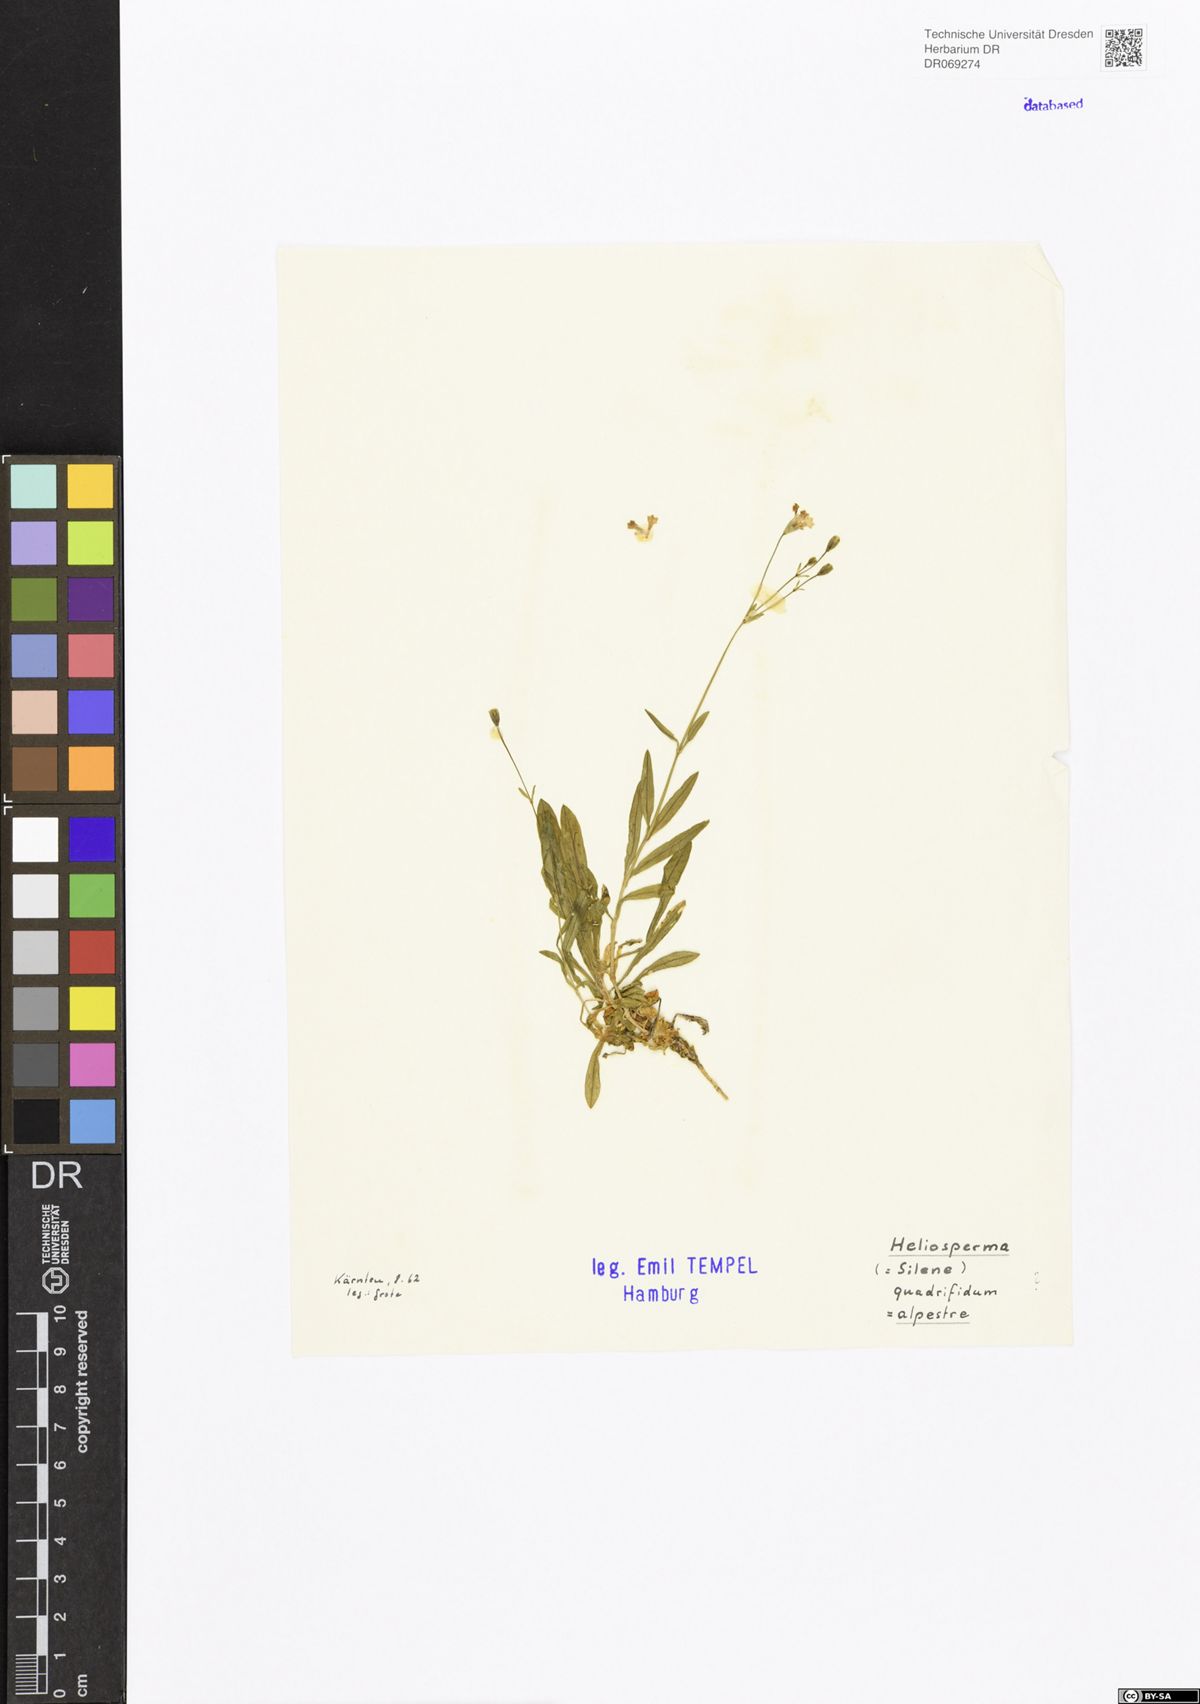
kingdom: Plantae
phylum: Tracheophyta
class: Magnoliopsida
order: Caryophyllales
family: Caryophyllaceae
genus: Heliosperma
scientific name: Heliosperma alpestre
